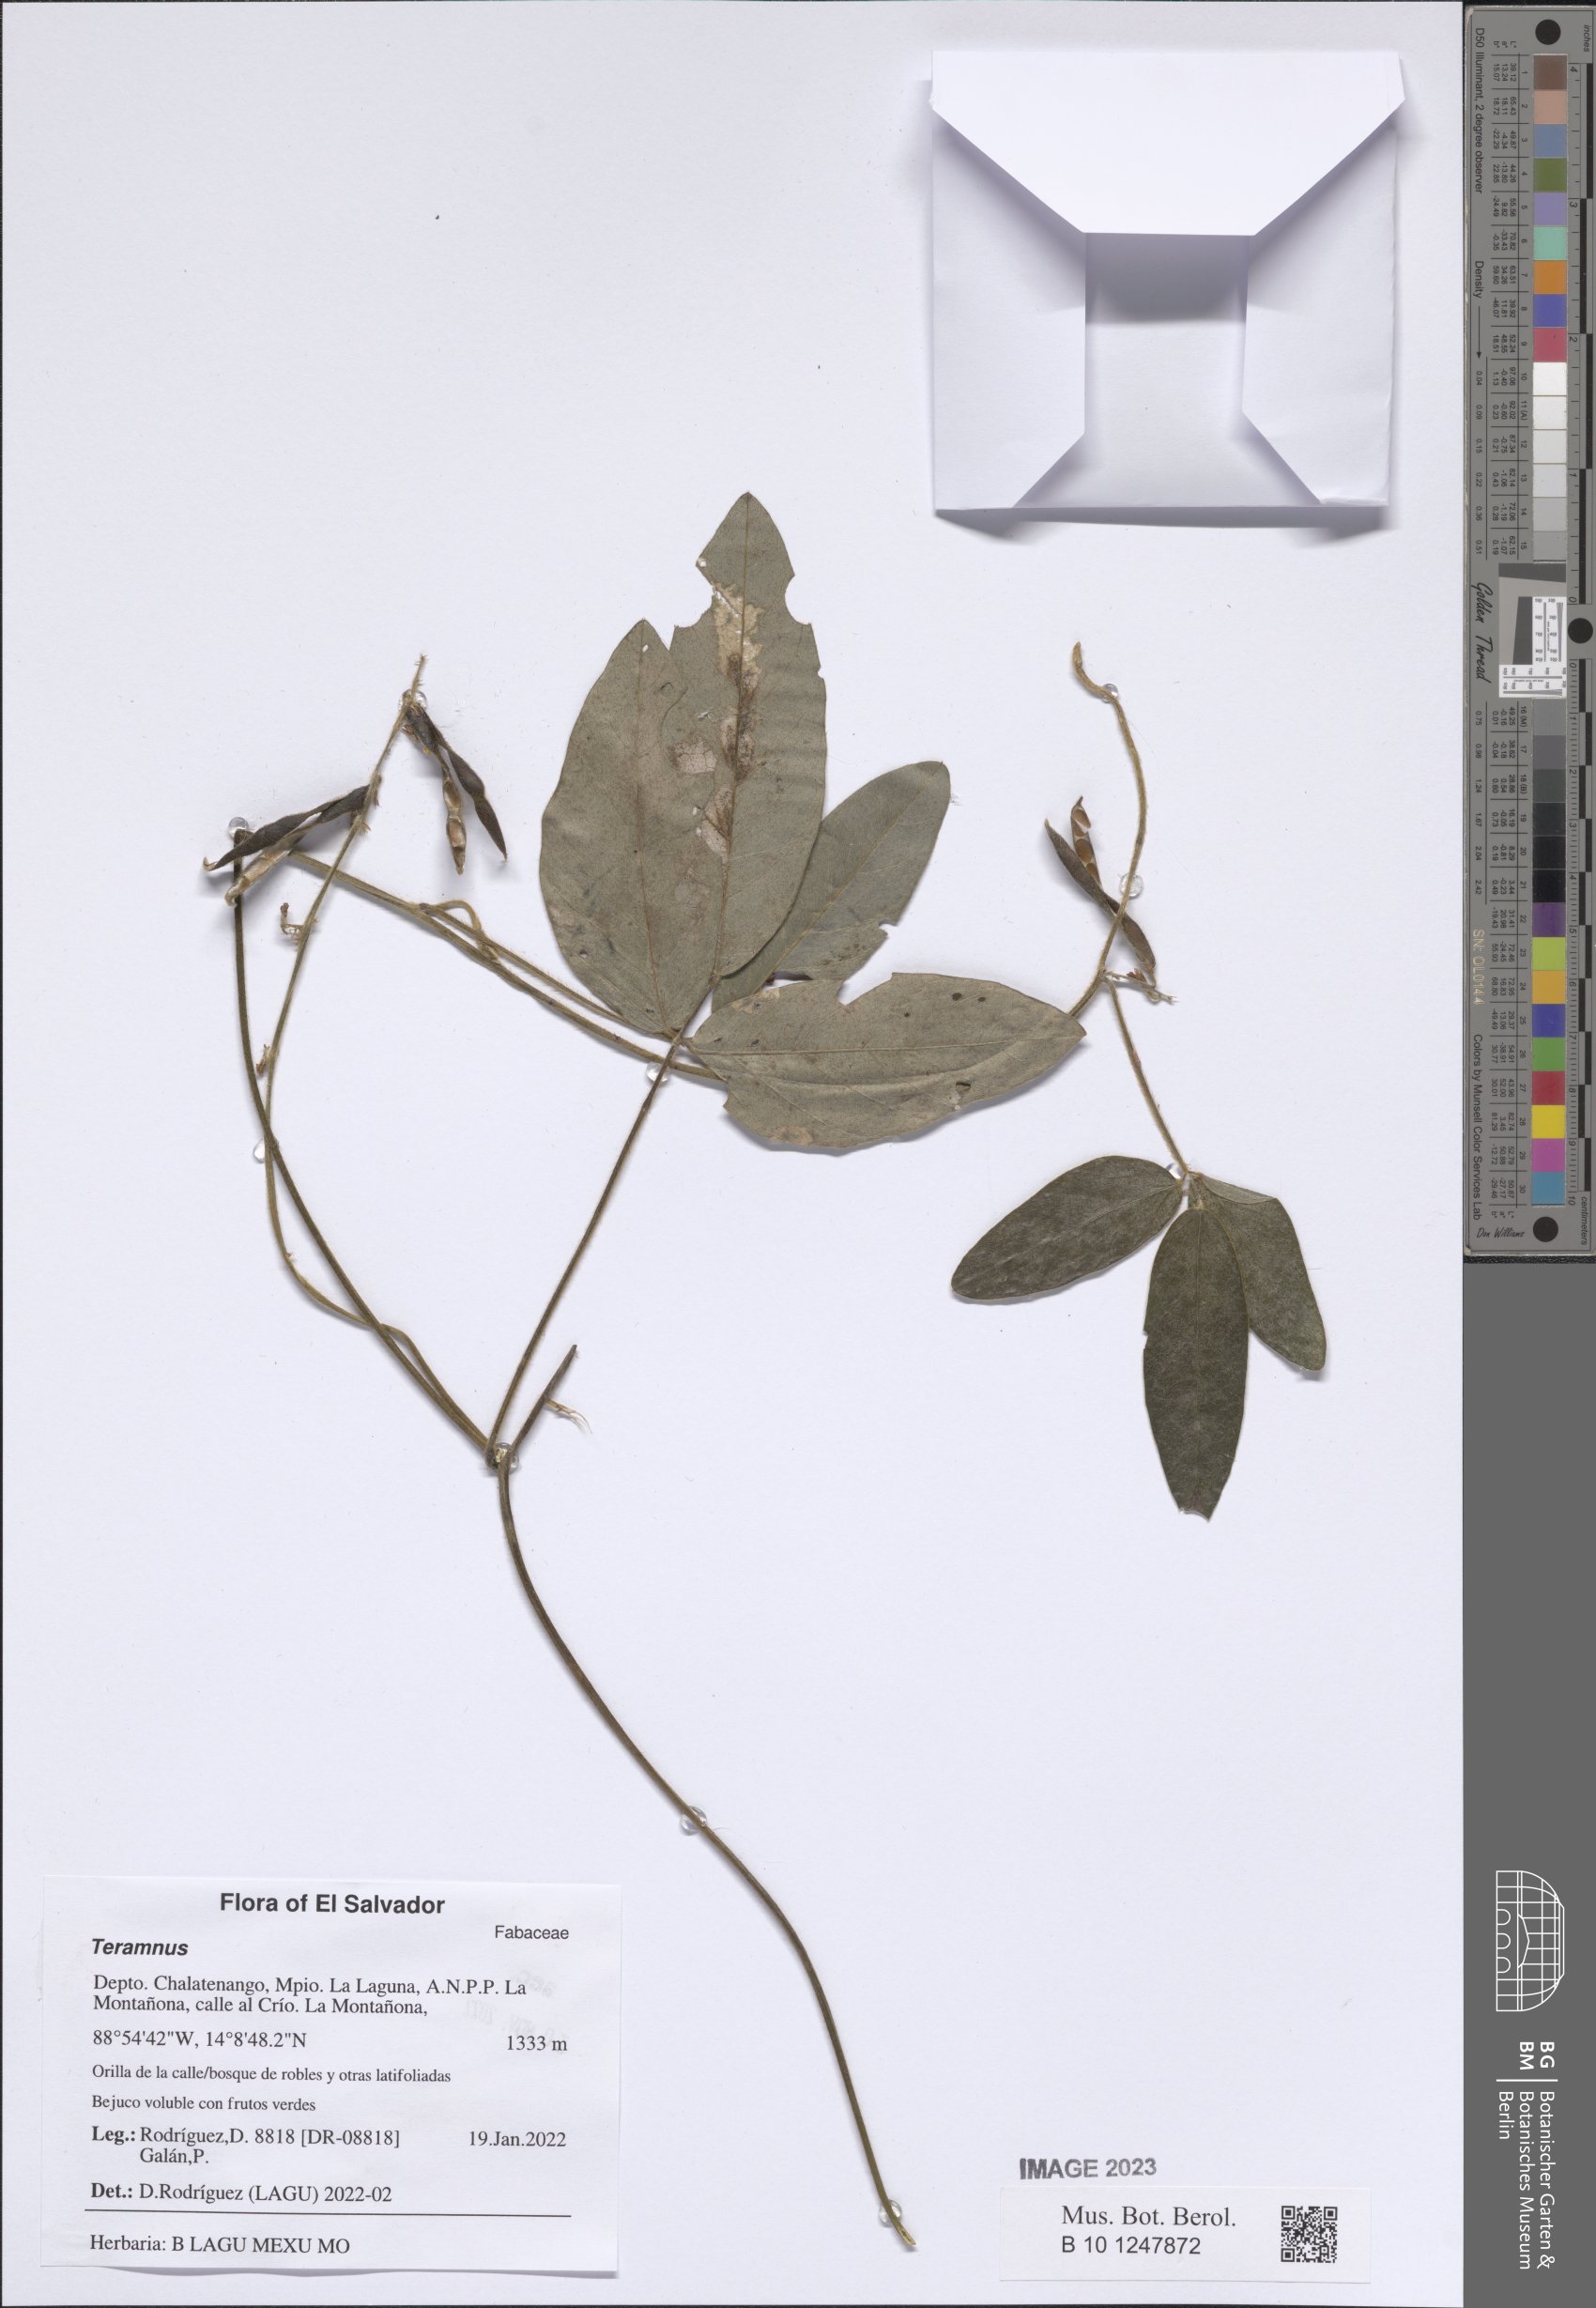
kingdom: Plantae
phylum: Tracheophyta
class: Magnoliopsida
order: Fabales
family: Fabaceae
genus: Teramnus
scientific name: Teramnus
